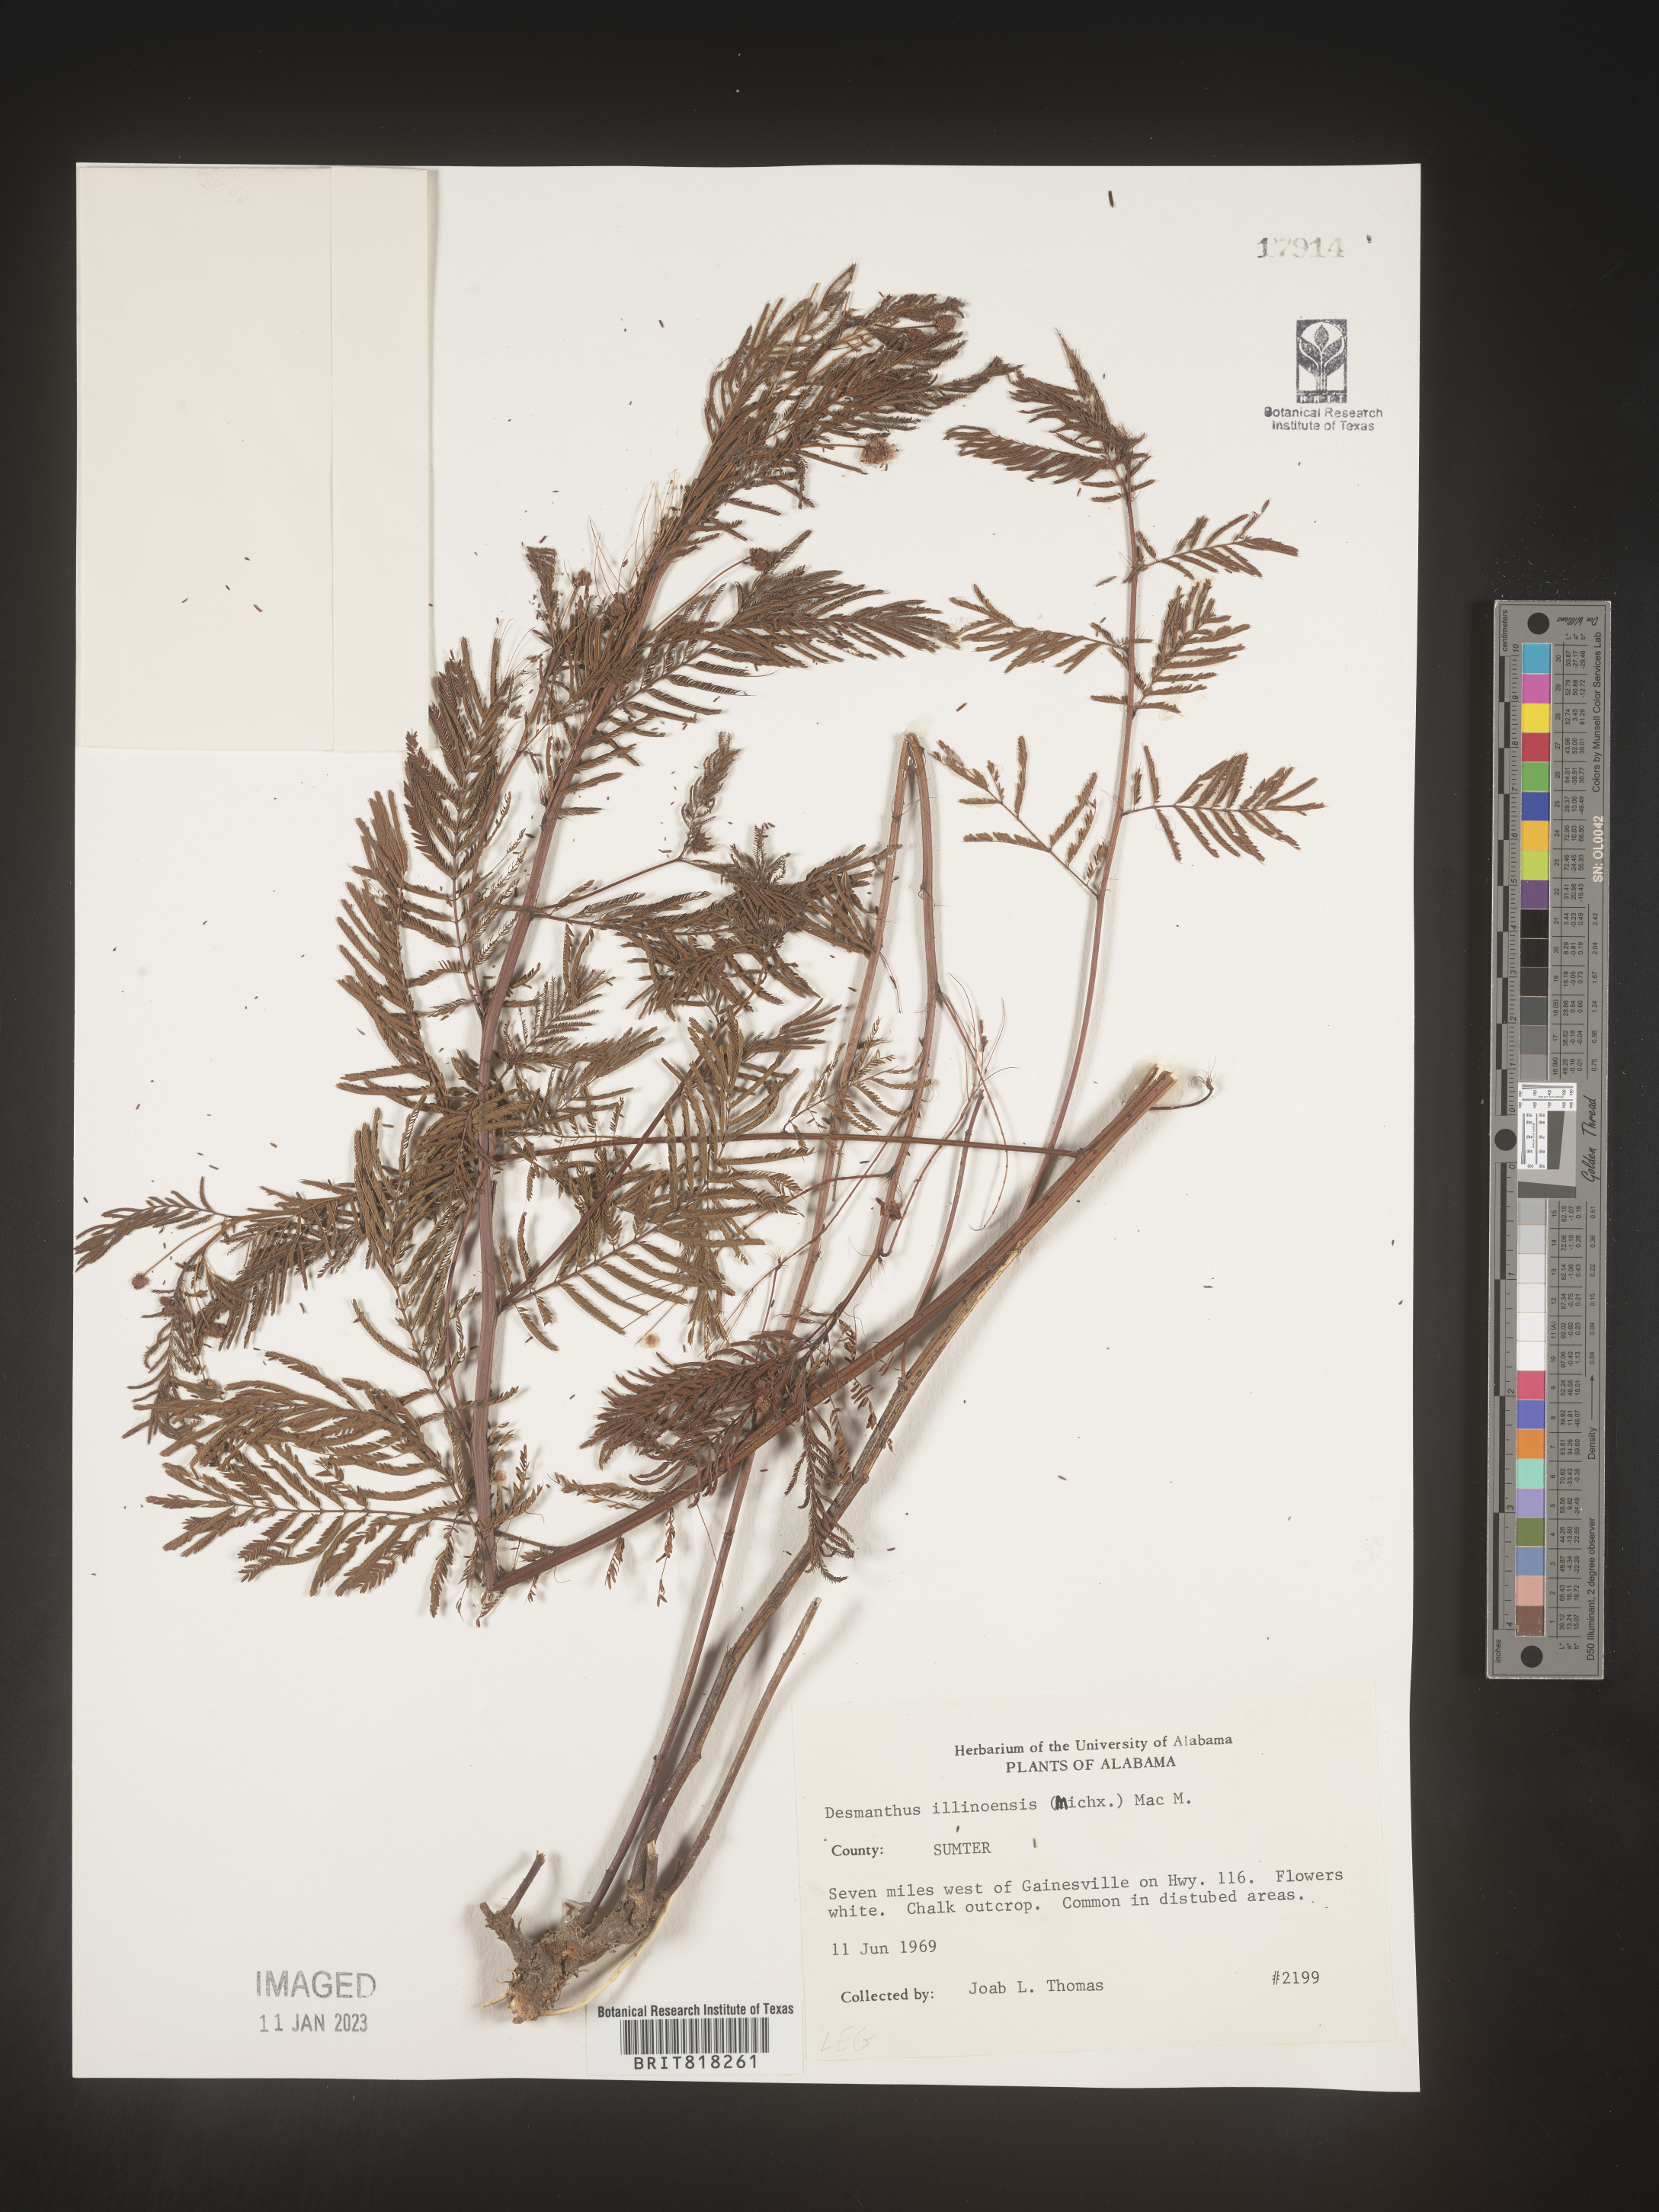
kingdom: Plantae
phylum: Tracheophyta
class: Magnoliopsida
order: Fabales
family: Fabaceae
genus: Desmanthus
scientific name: Desmanthus illinoensis
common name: Illinois bundle-flower
